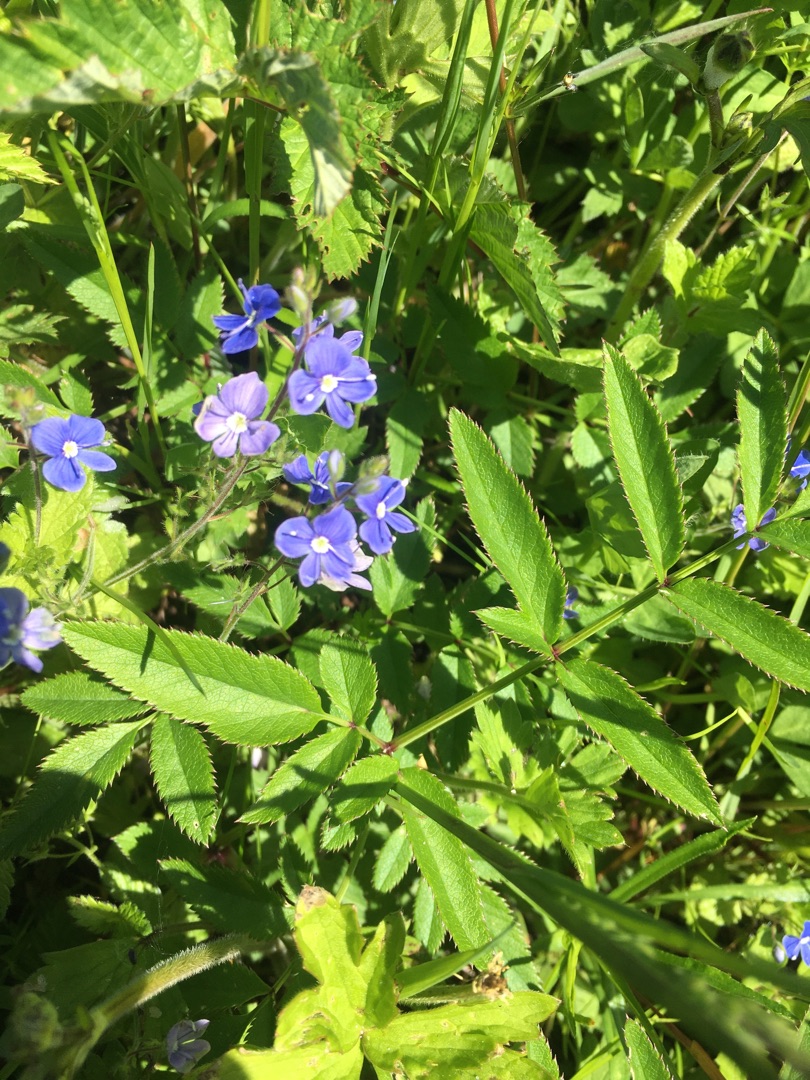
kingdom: Plantae
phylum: Tracheophyta
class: Magnoliopsida
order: Lamiales
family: Plantaginaceae
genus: Veronica
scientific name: Veronica chamaedrys
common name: Tveskægget ærenpris
